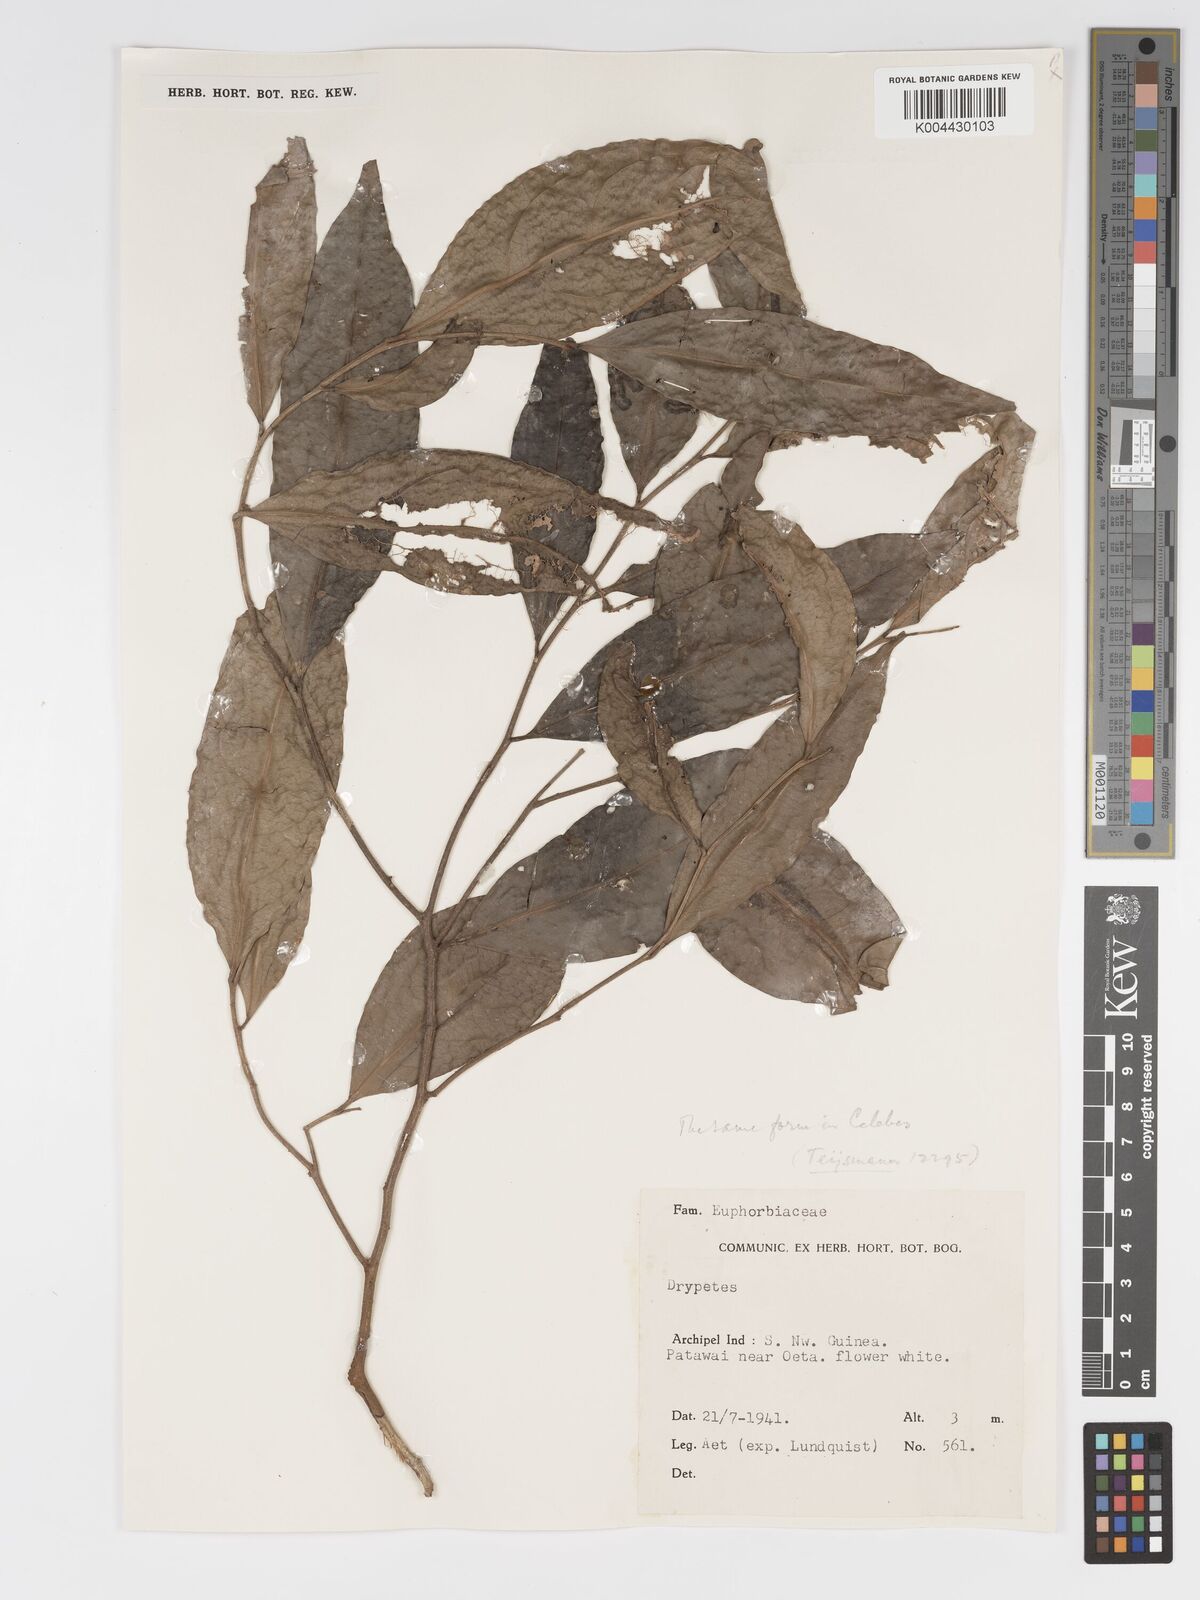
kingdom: Plantae
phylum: Tracheophyta
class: Magnoliopsida
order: Malpighiales
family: Putranjivaceae
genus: Drypetes
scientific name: Drypetes celebica
